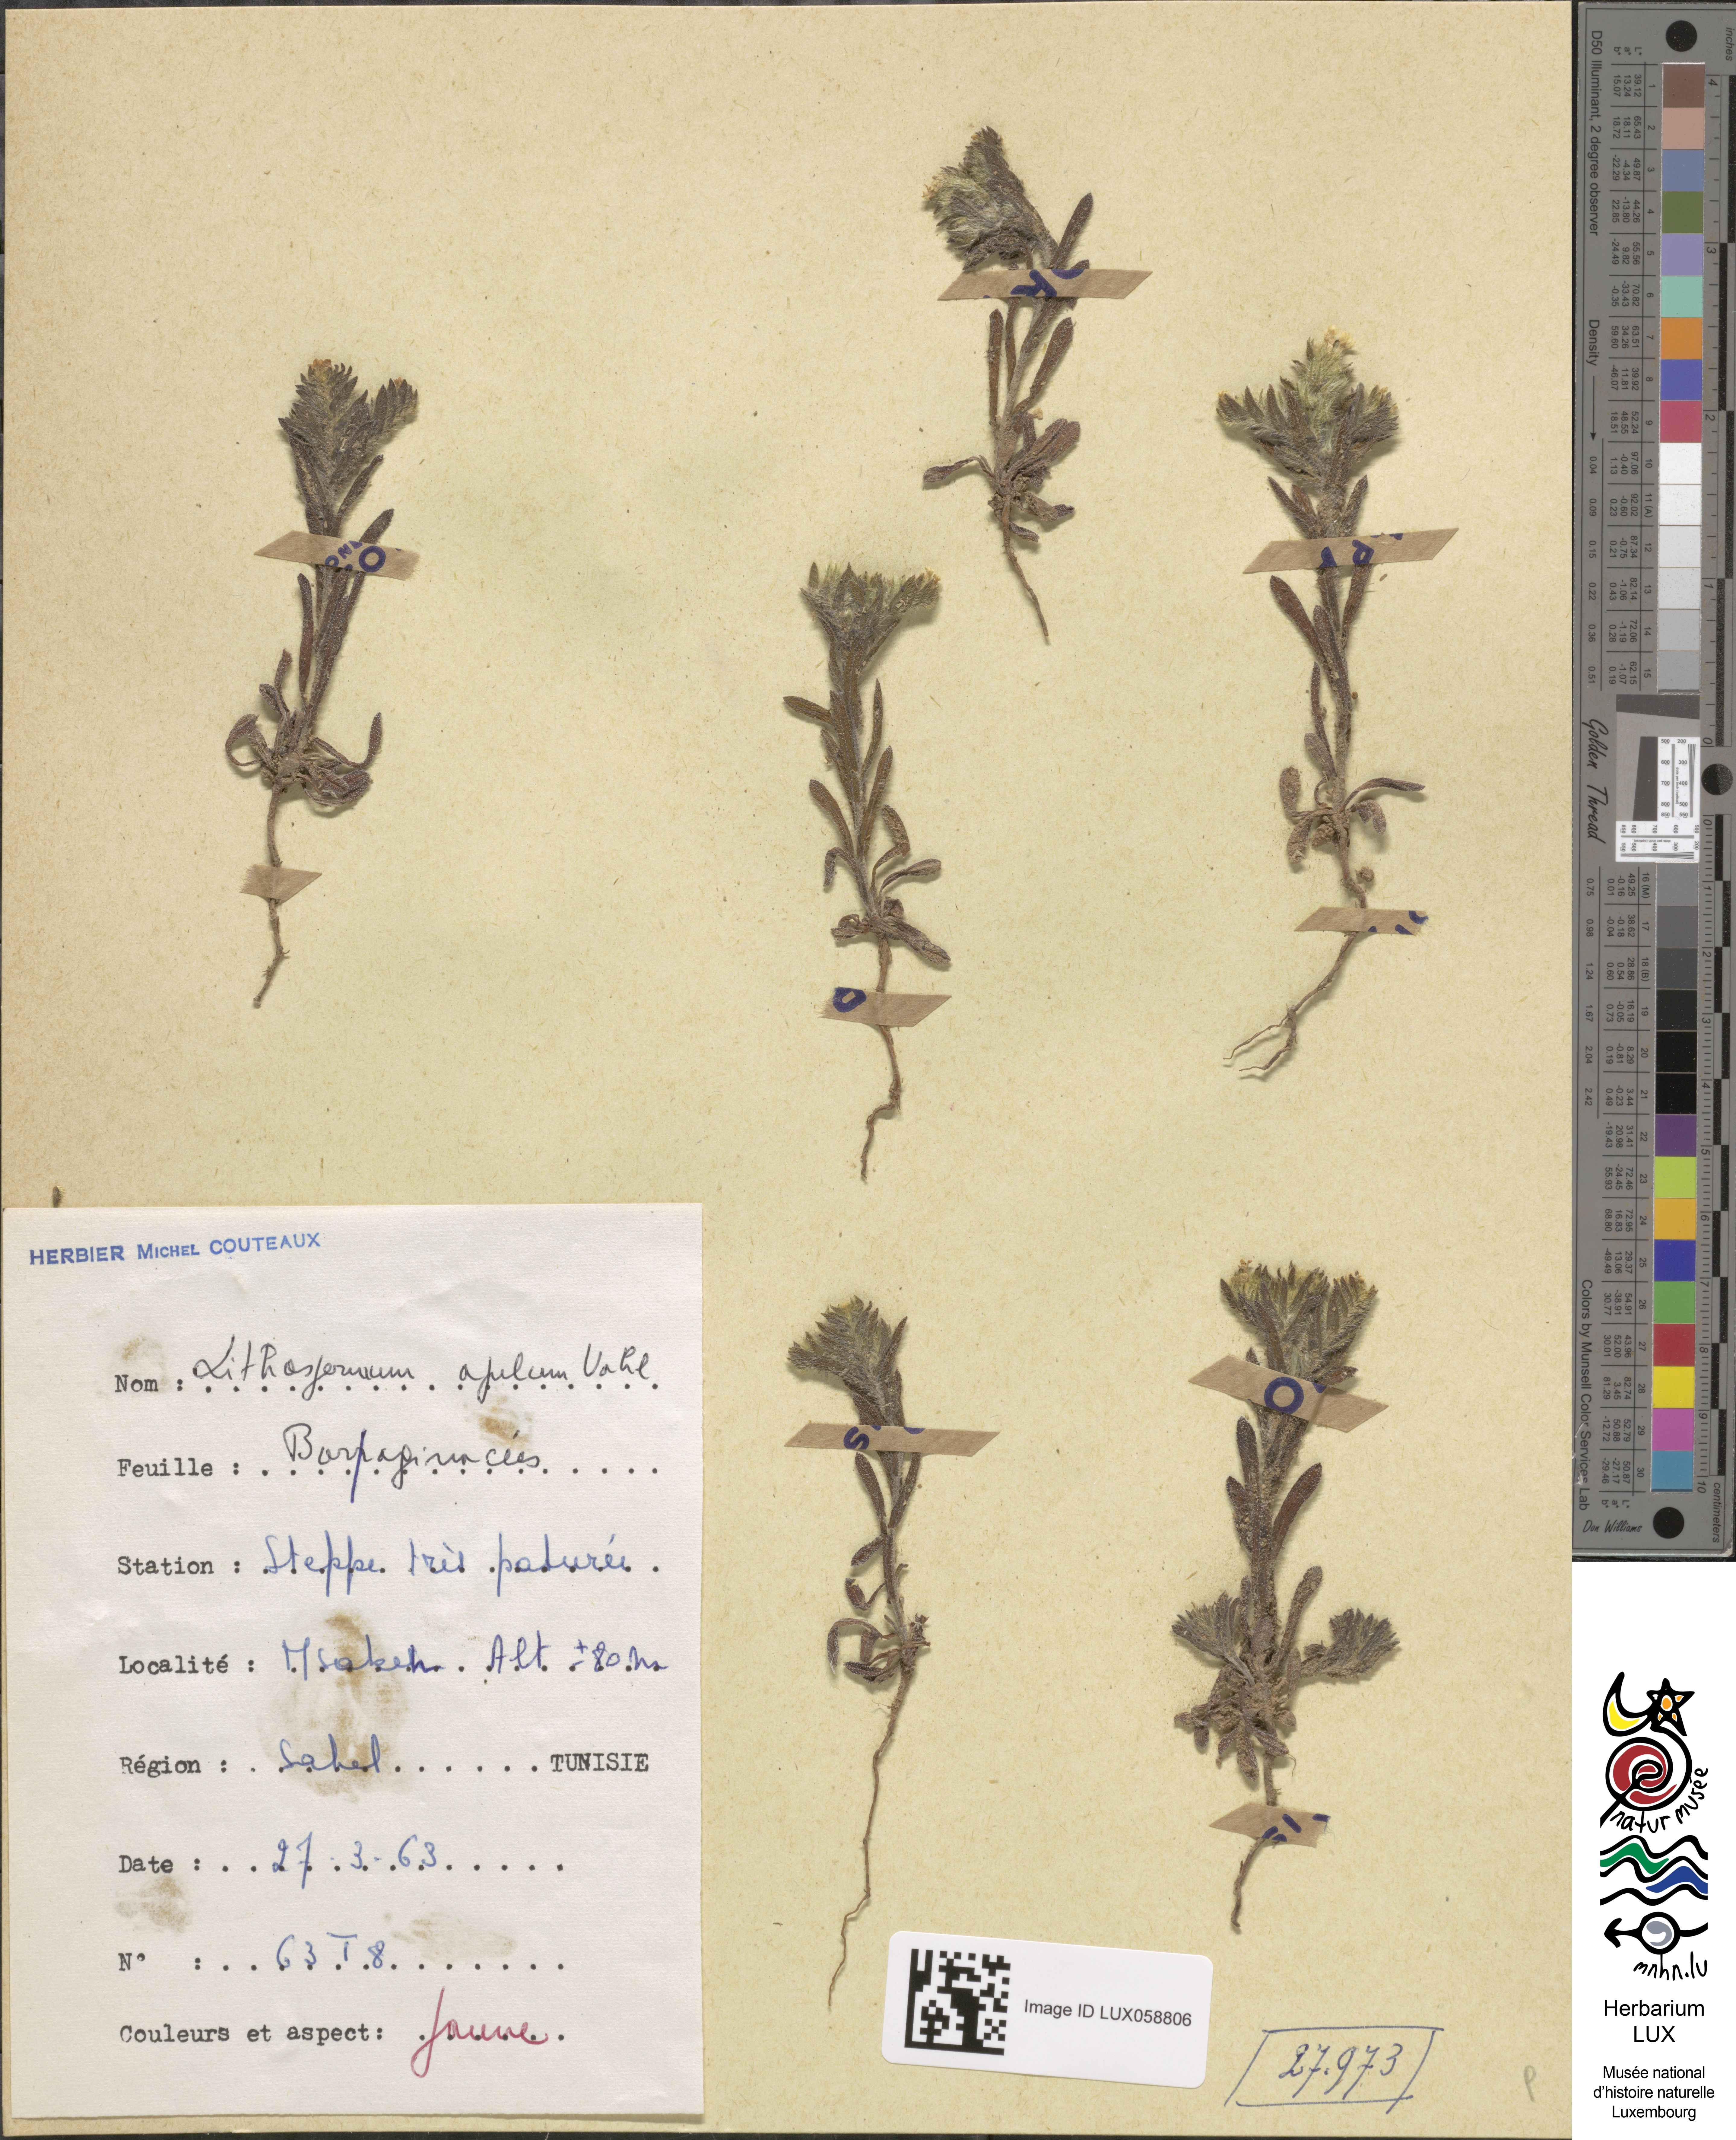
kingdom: Plantae
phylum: Tracheophyta
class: Magnoliopsida
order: Boraginales
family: Boraginaceae
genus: Neatostema
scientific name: Neatostema apulum
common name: Hairy sheepweed
